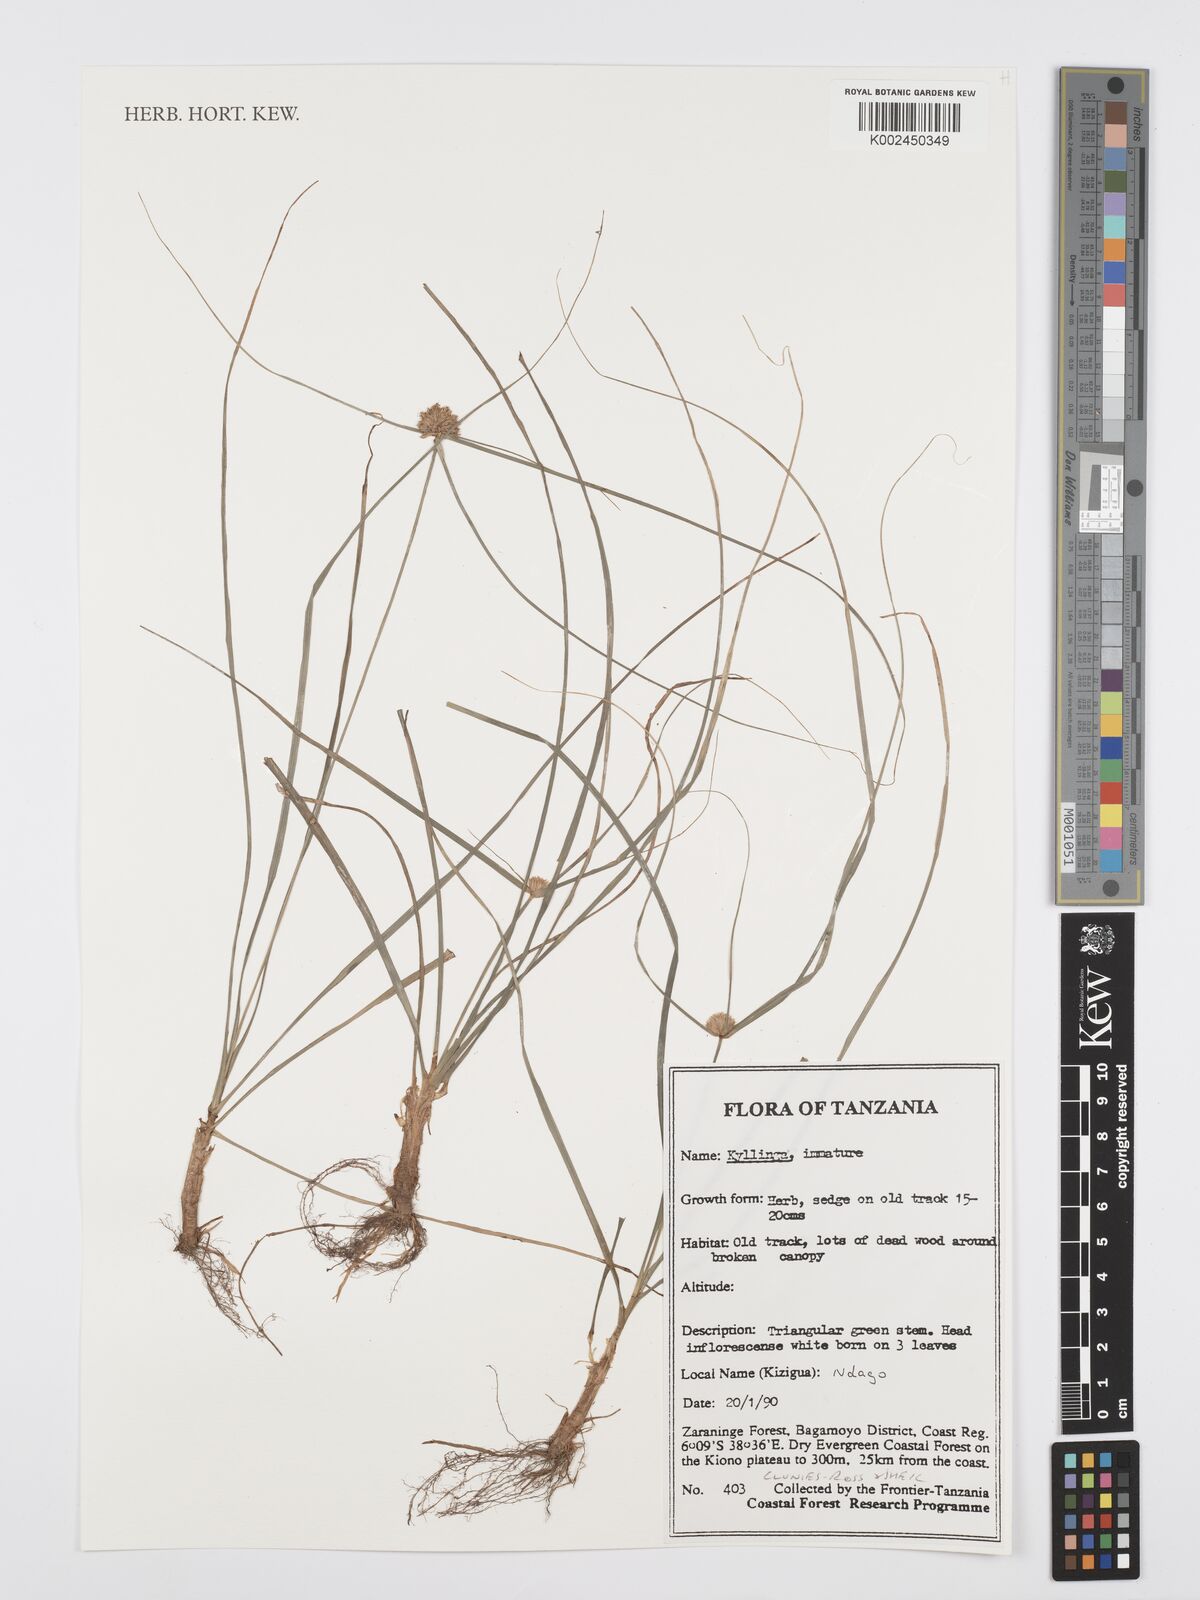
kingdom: Plantae
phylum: Tracheophyta
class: Liliopsida
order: Poales
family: Cyperaceae
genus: Cyperus
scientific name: Cyperus
